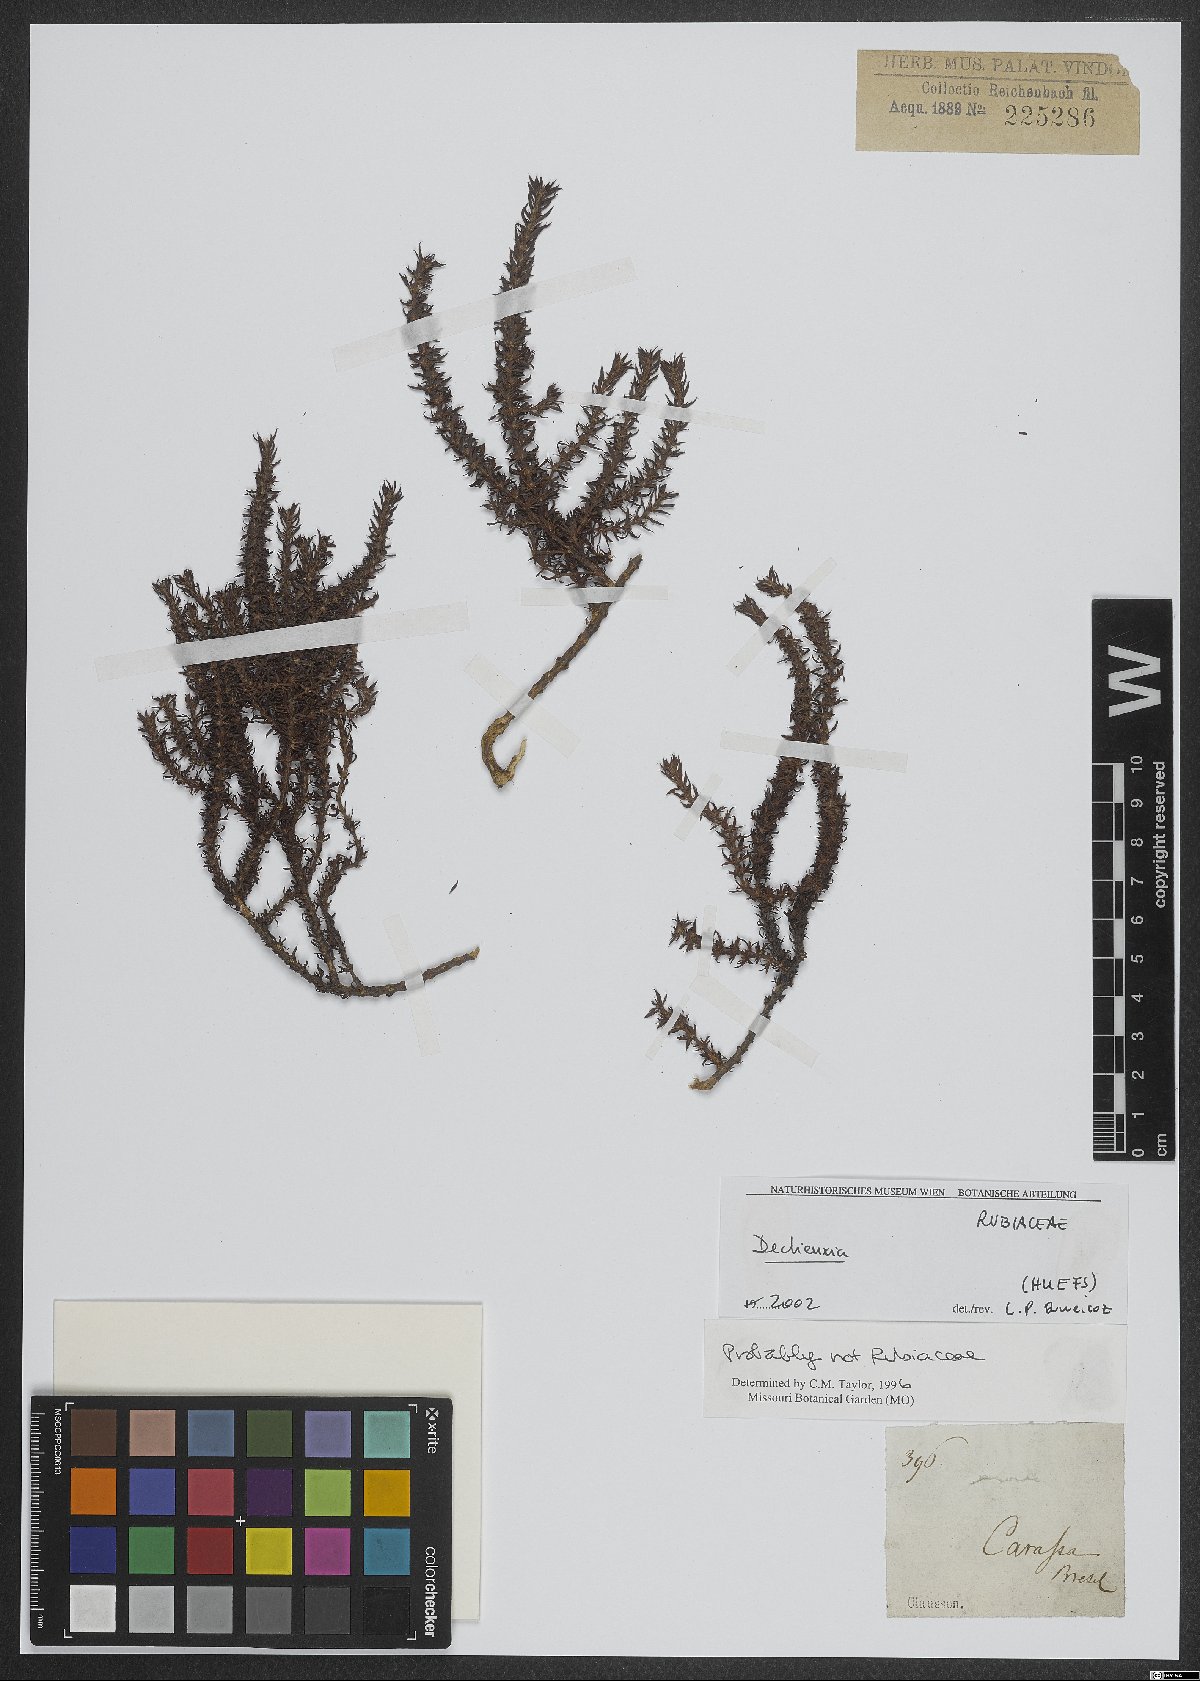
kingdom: Plantae
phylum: Tracheophyta
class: Magnoliopsida
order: Gentianales
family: Rubiaceae
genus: Declieuxia
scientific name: Declieuxia
